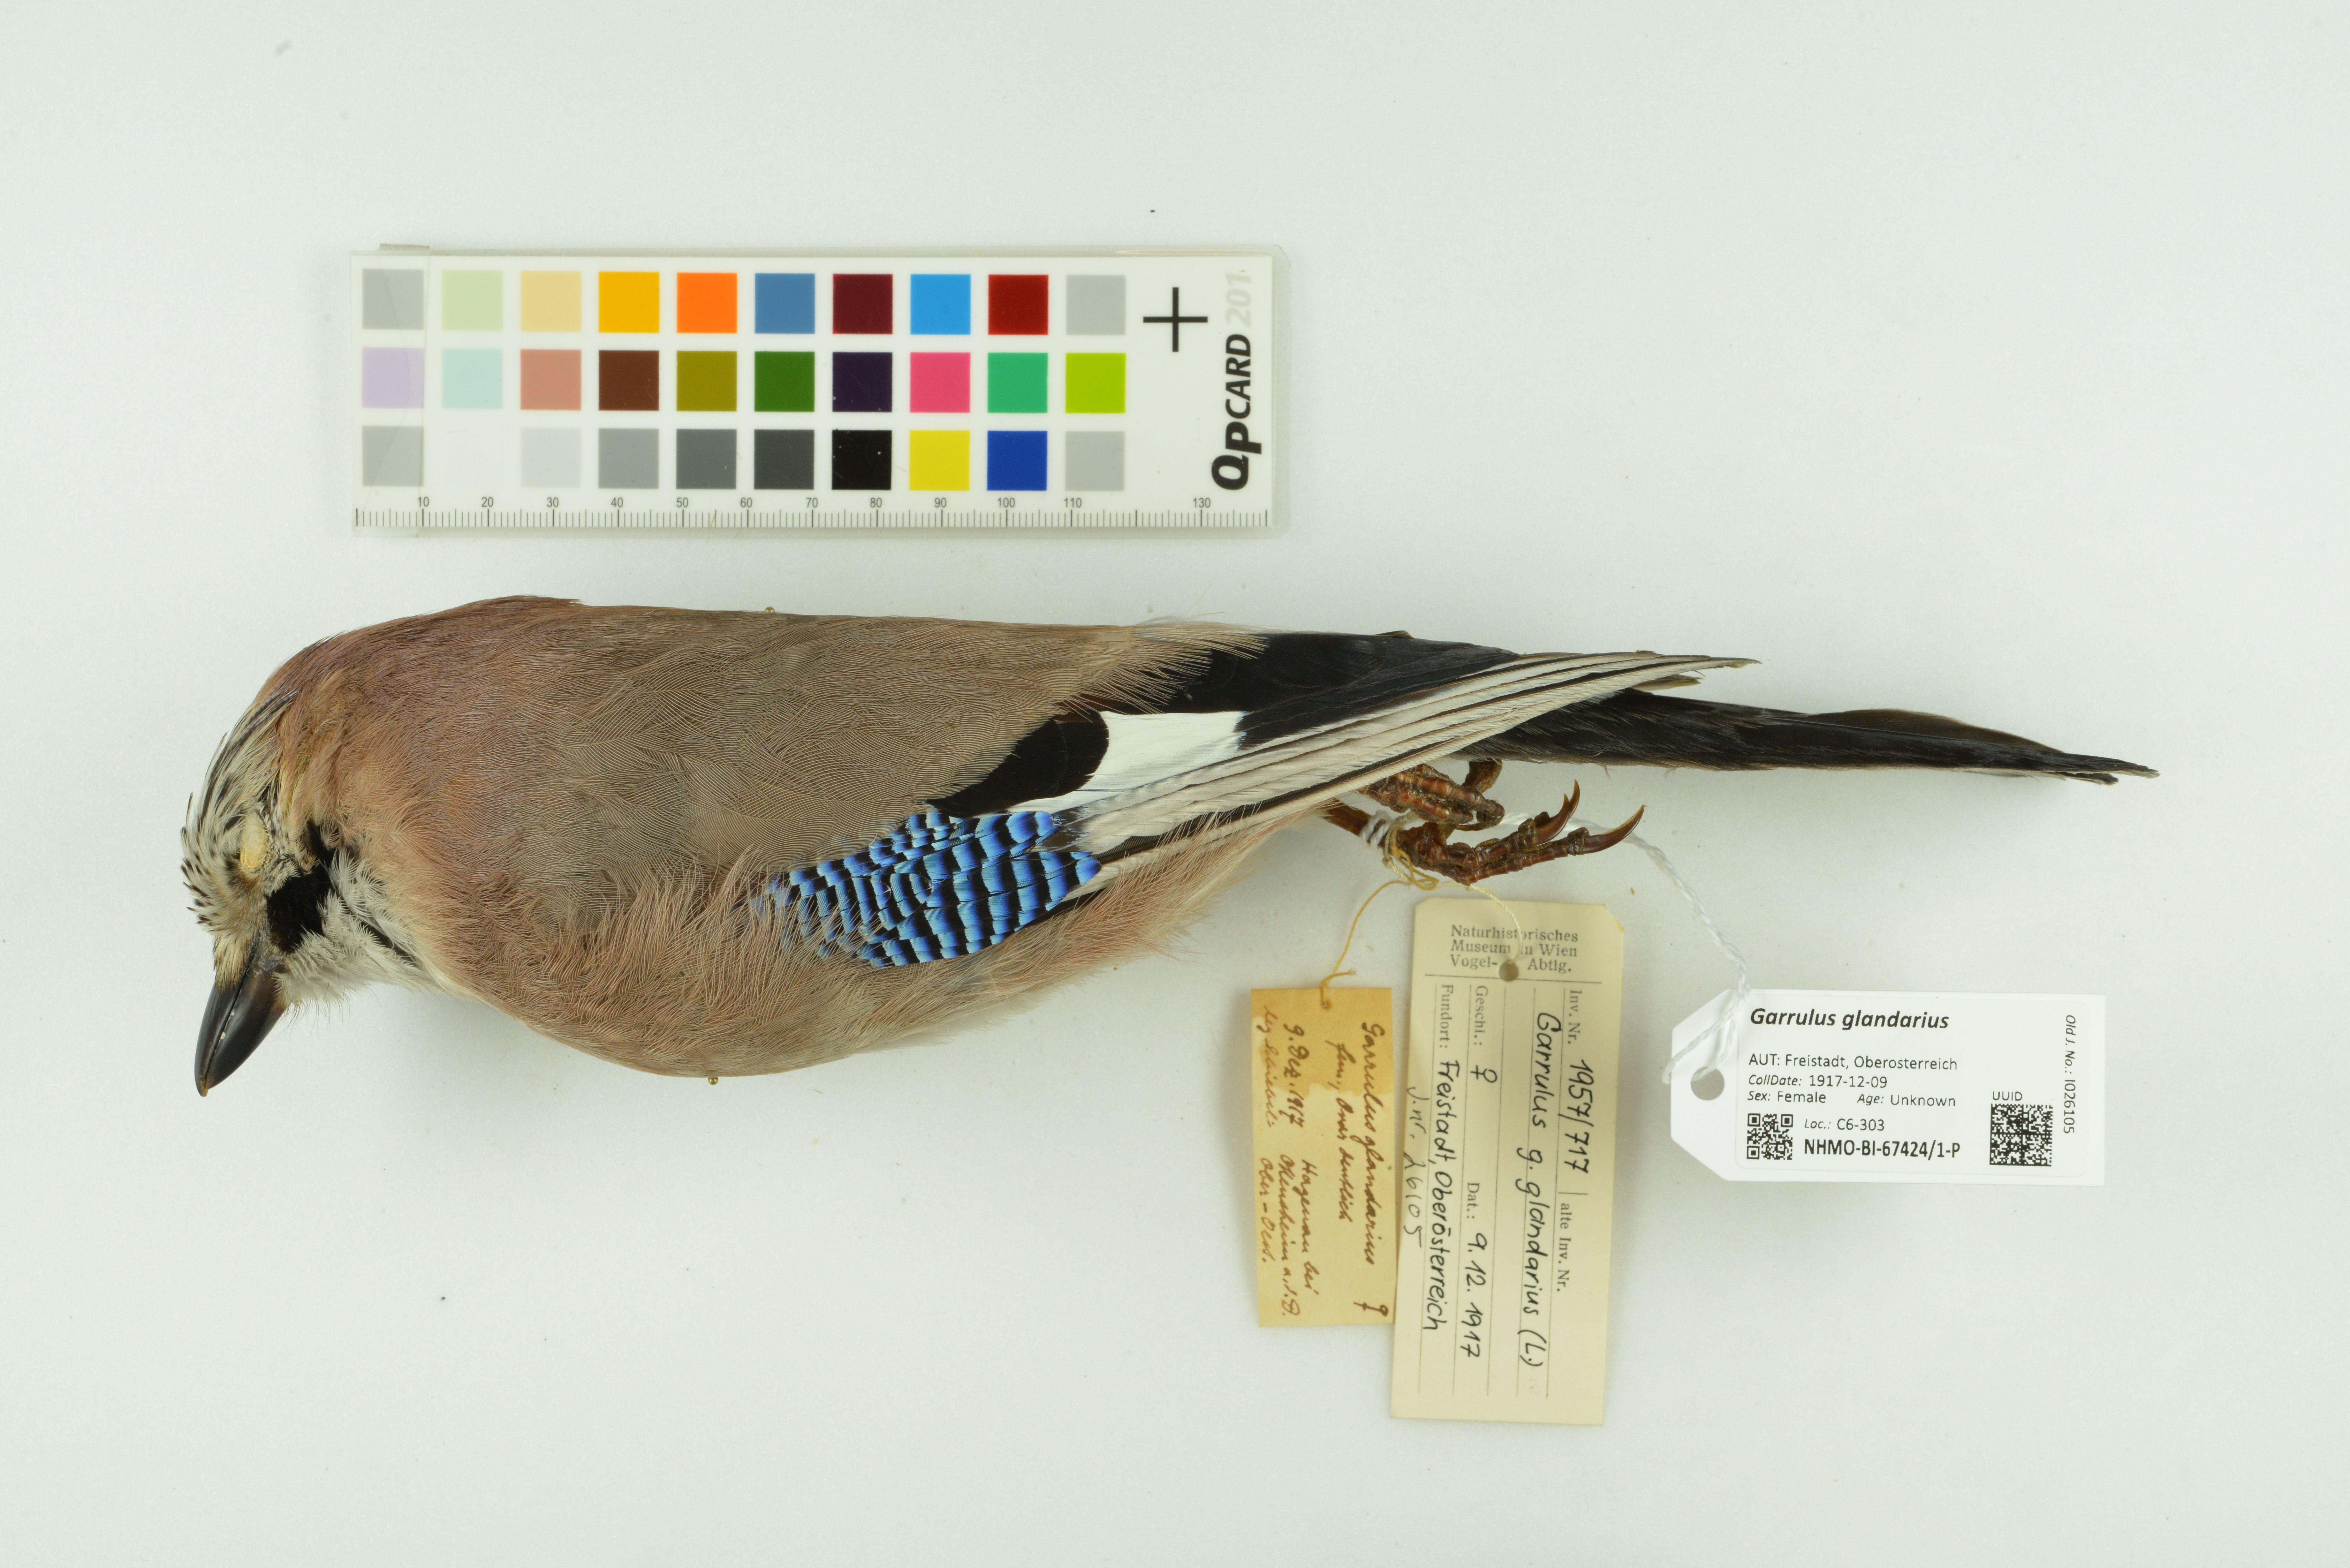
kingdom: Animalia
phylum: Chordata
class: Aves
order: Passeriformes
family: Corvidae
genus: Garrulus
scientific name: Garrulus glandarius
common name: Eurasian jay
